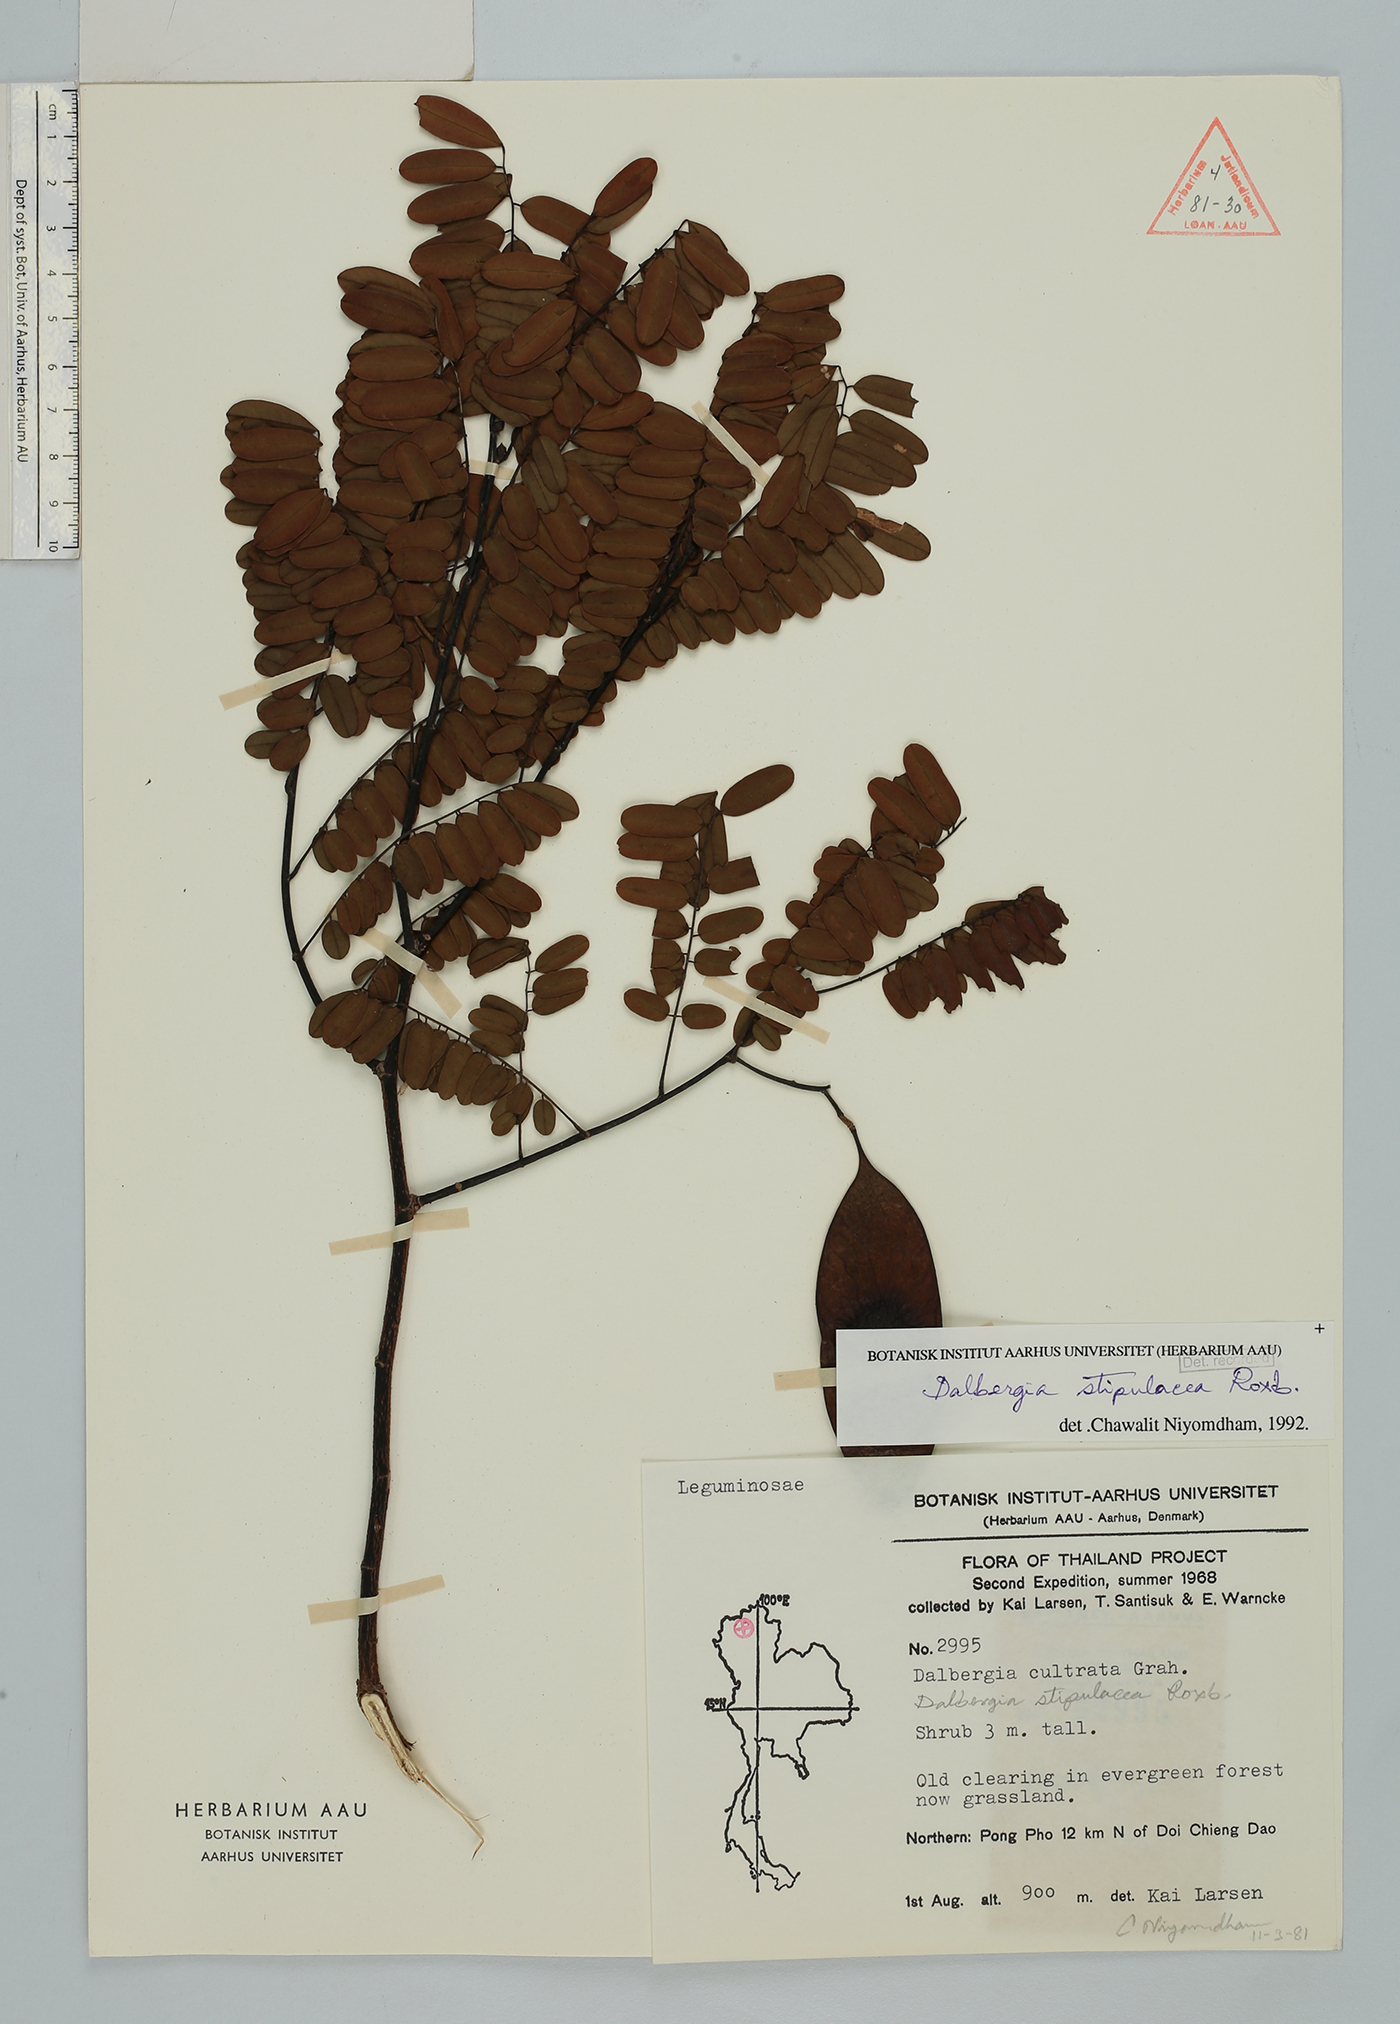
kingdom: Plantae
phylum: Tracheophyta
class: Magnoliopsida
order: Fabales
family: Fabaceae
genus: Dalbergia
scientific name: Dalbergia stipulacea
